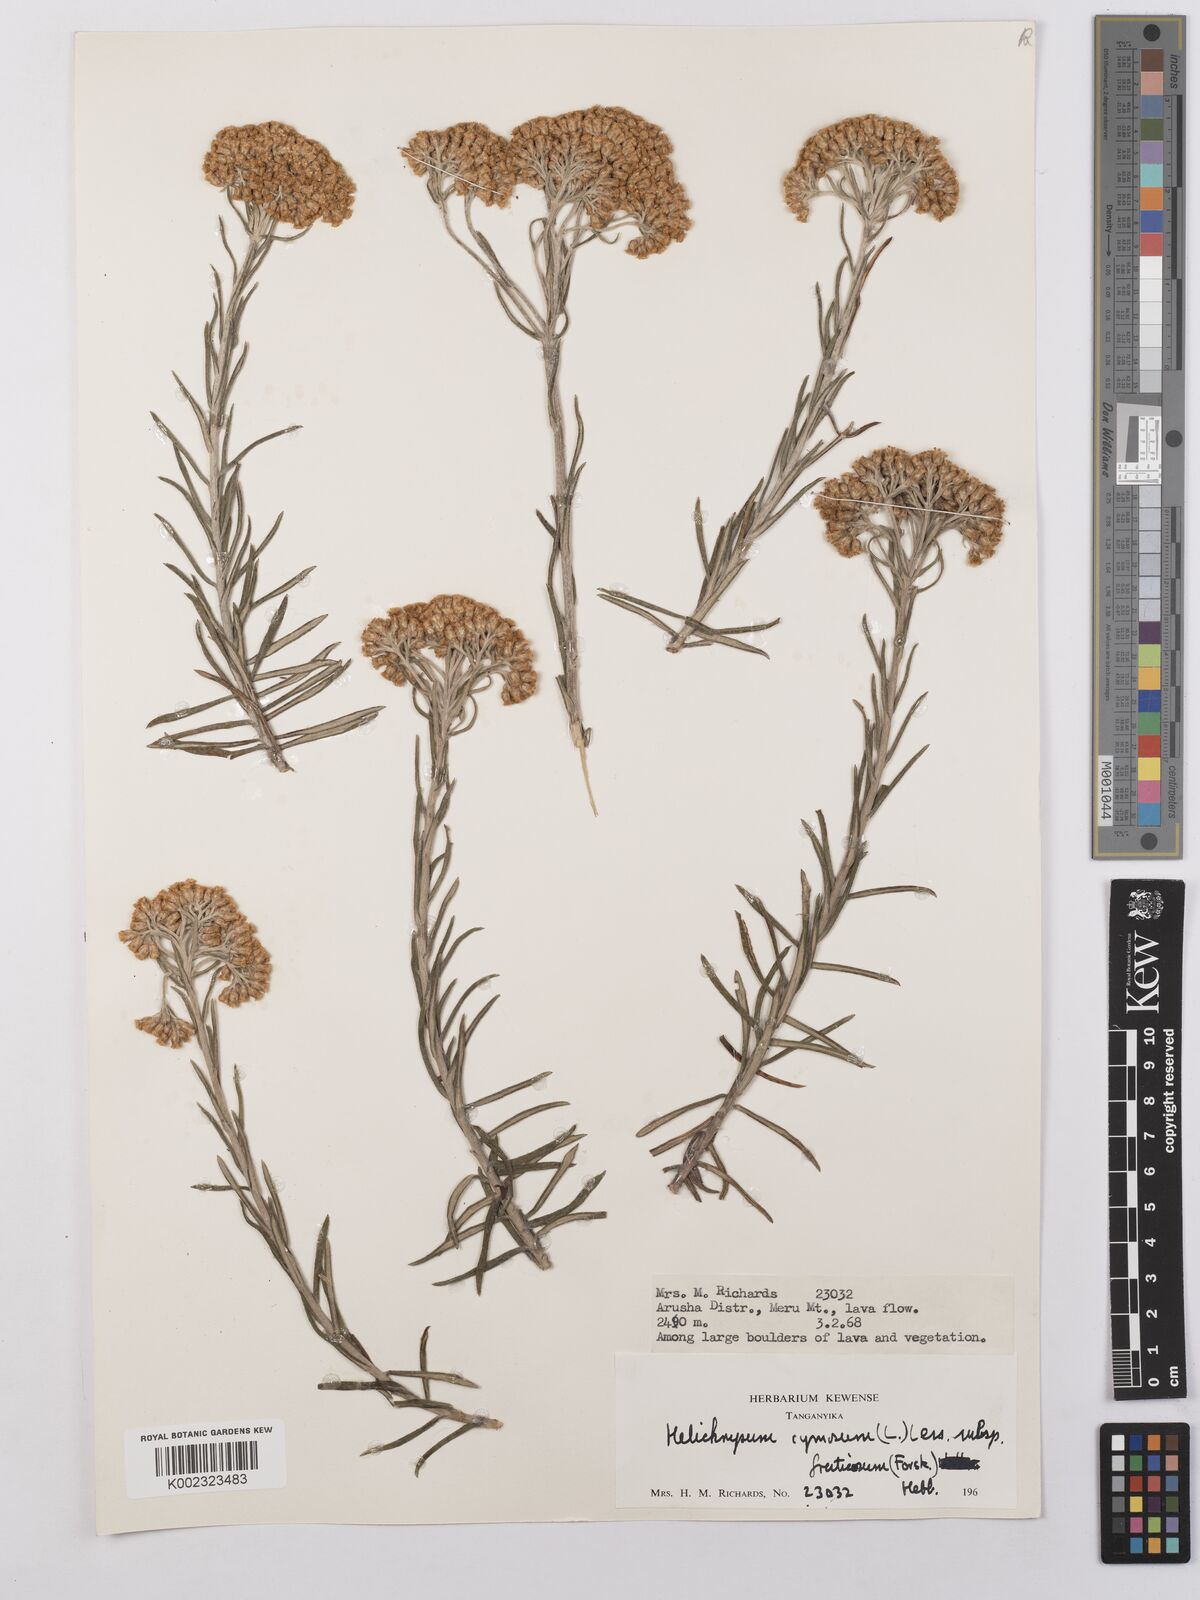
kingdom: Plantae
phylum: Tracheophyta
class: Magnoliopsida
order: Asterales
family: Asteraceae
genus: Helichrysum
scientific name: Helichrysum forskahlii
